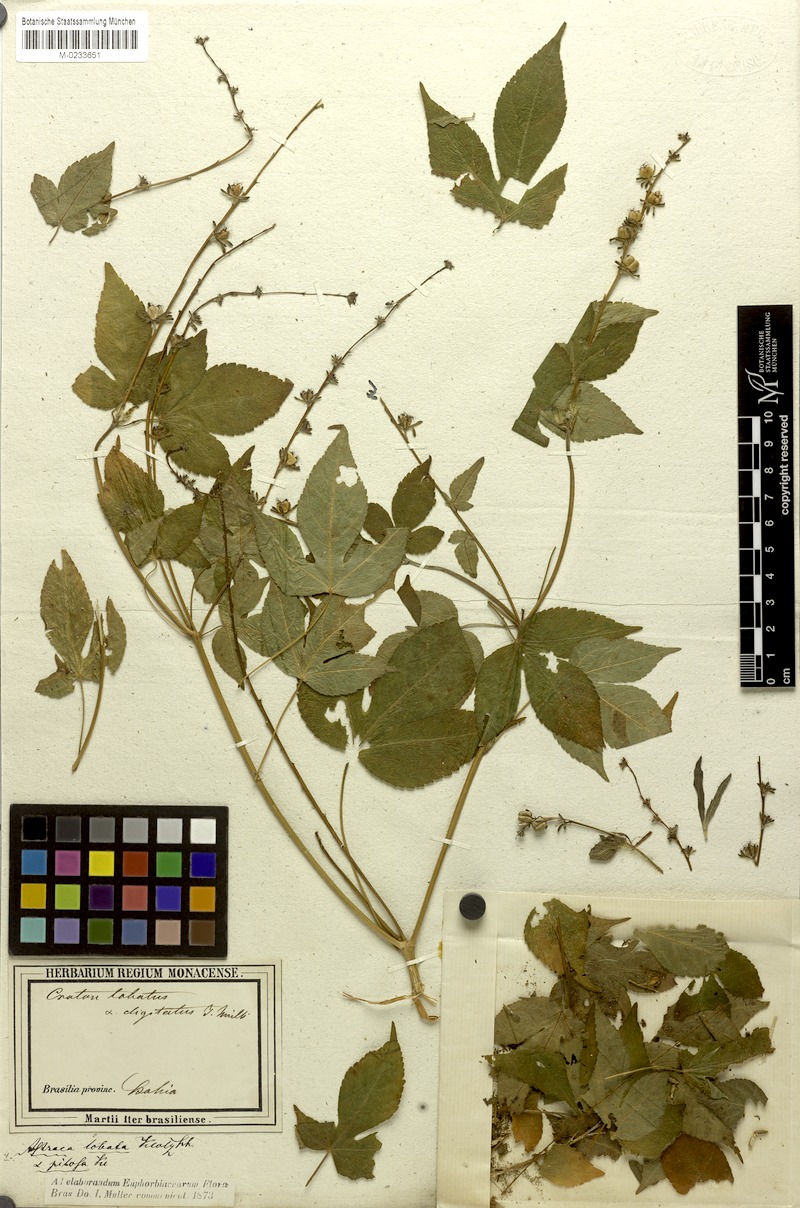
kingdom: Plantae
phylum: Tracheophyta
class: Magnoliopsida
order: Malpighiales
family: Euphorbiaceae
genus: Astraea
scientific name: Astraea lobata
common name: Lobed croton
